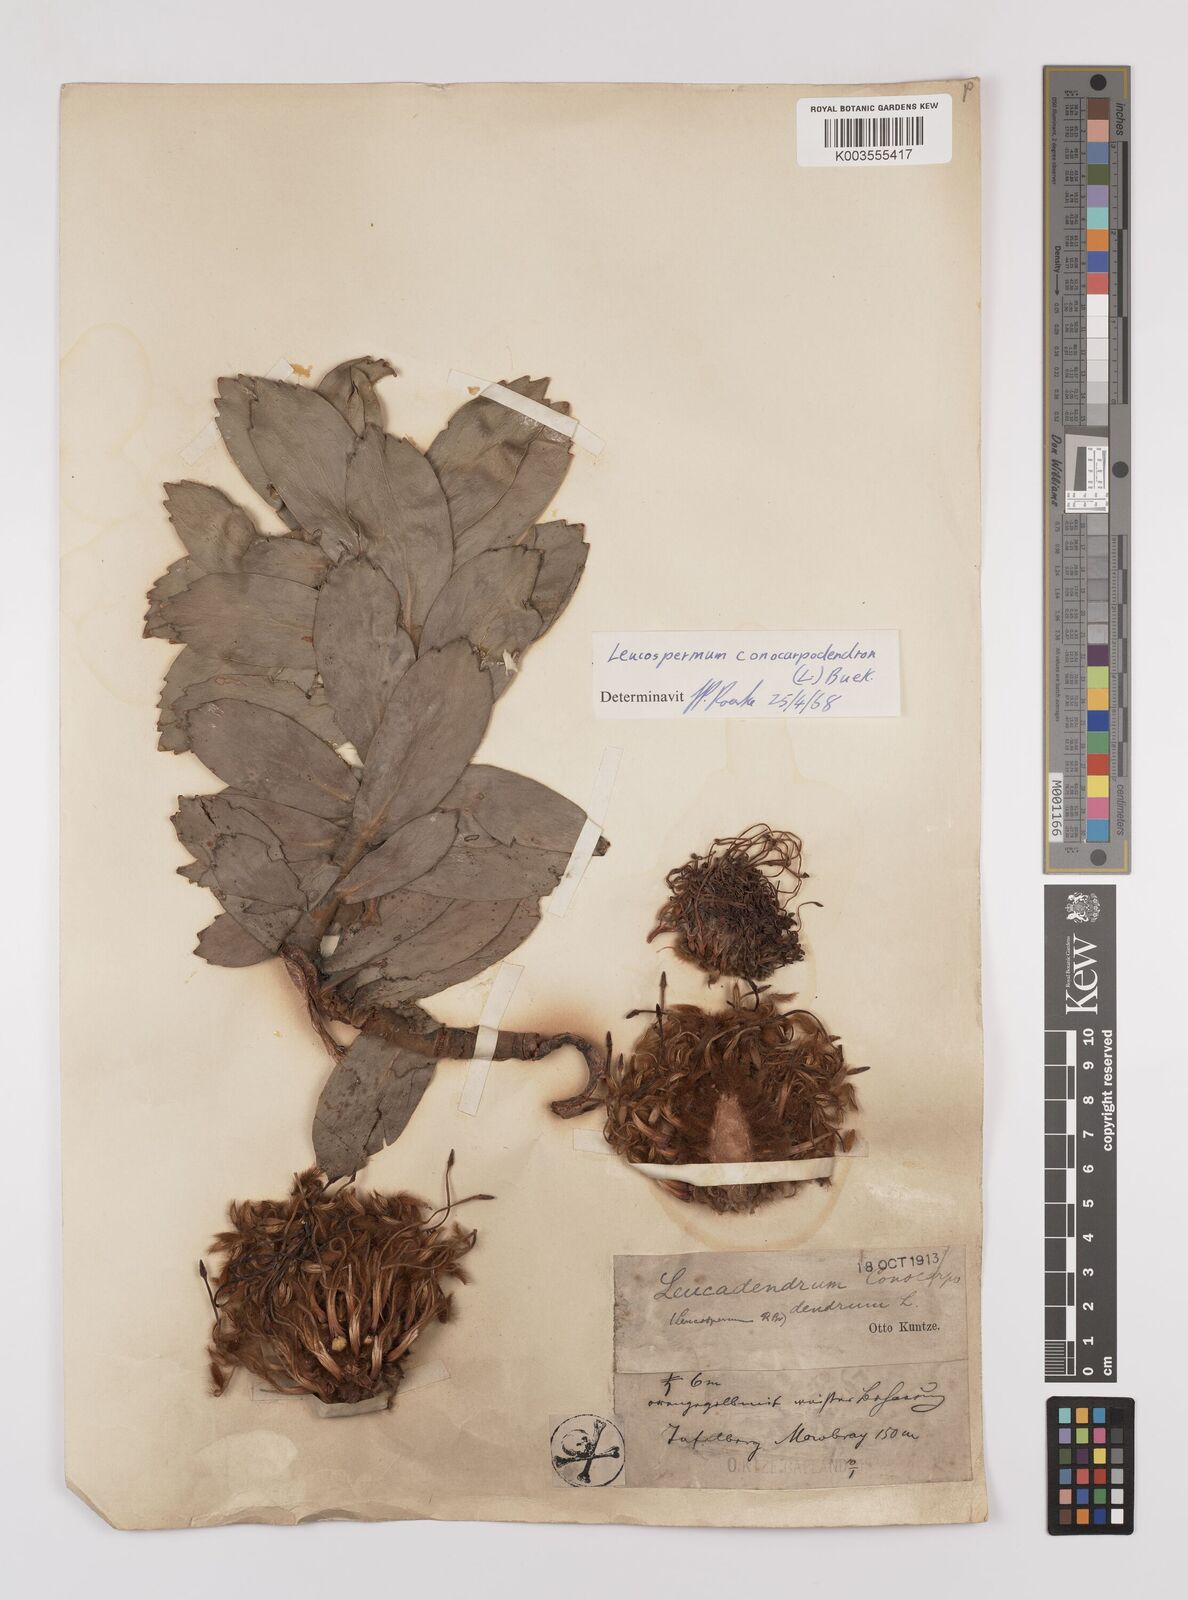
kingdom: Plantae
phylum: Tracheophyta
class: Magnoliopsida
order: Proteales
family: Proteaceae
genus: Leucospermum
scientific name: Leucospermum conocarpodendron
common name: Tree pincushion
